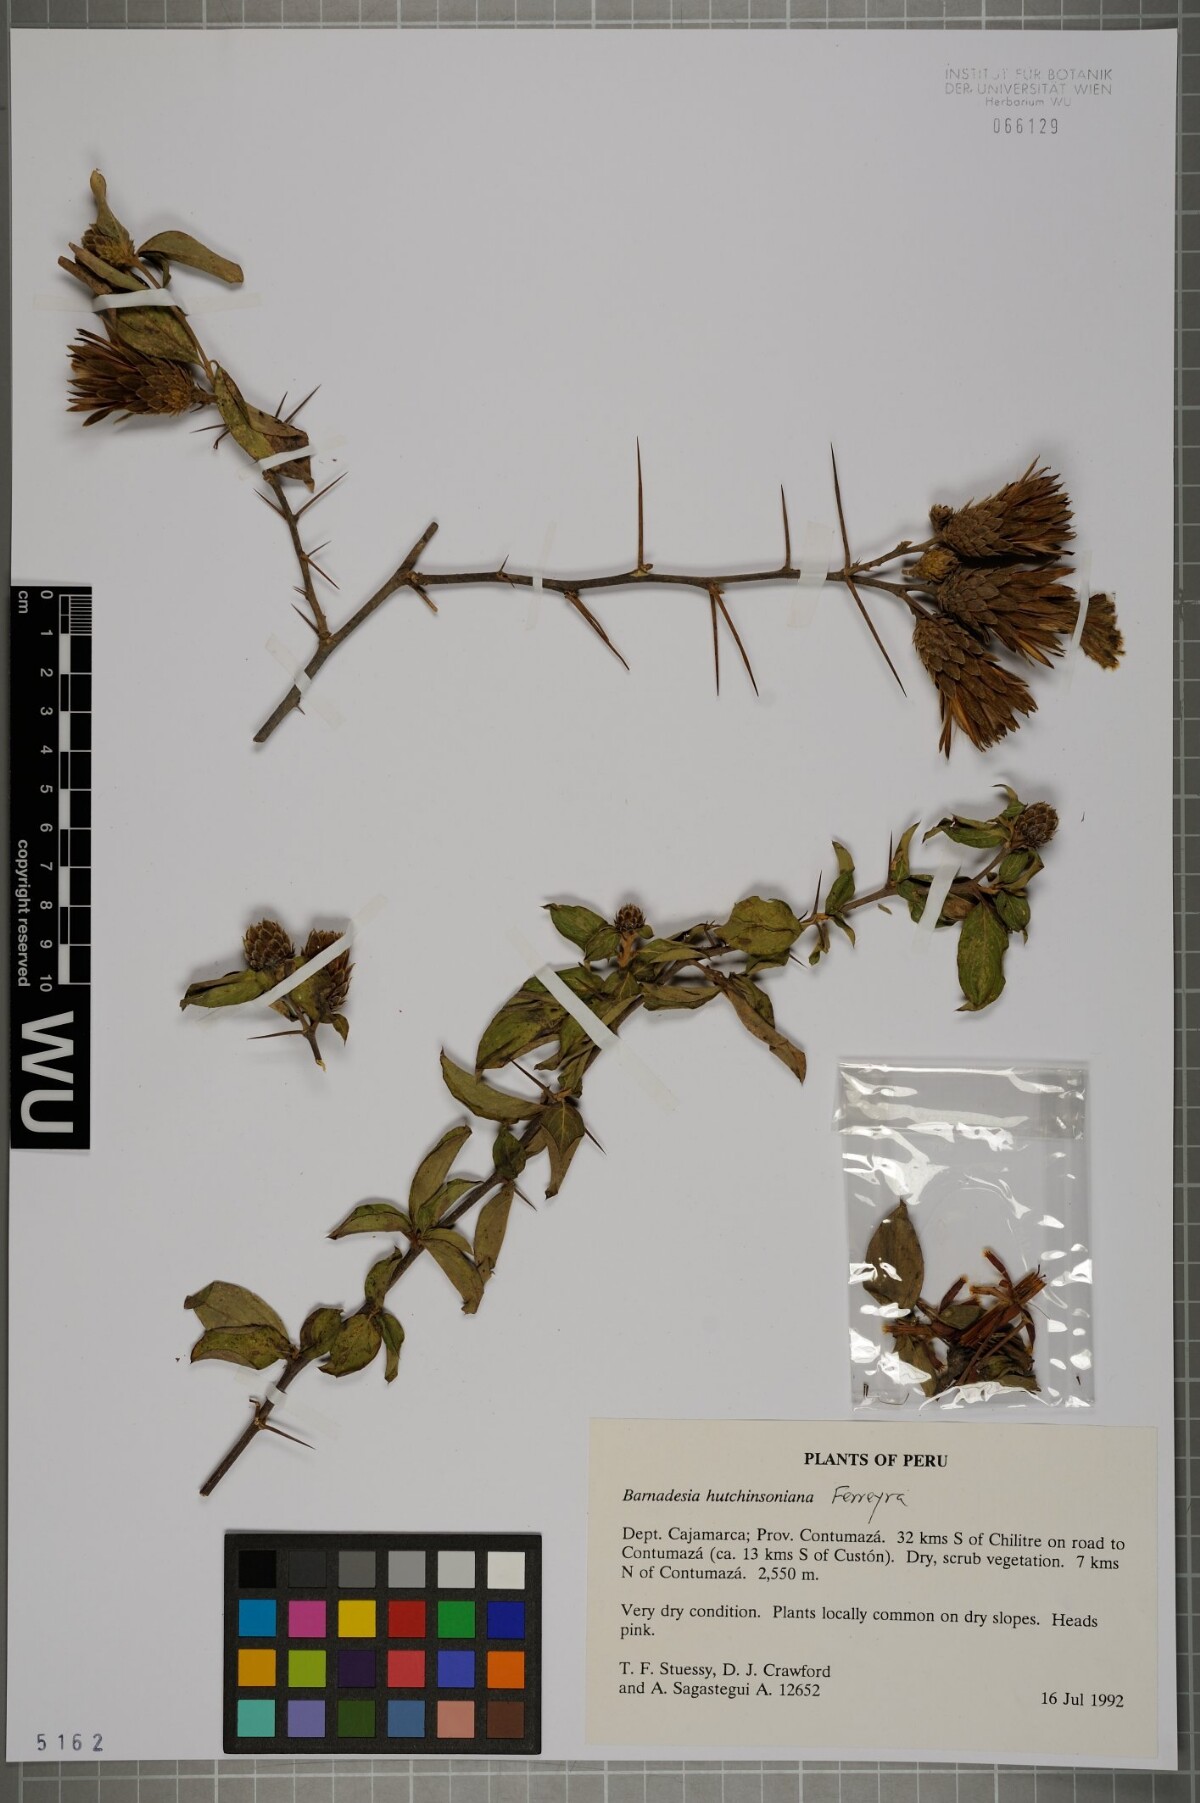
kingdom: Plantae
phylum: Tracheophyta
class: Magnoliopsida
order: Asterales
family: Asteraceae
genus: Barnadesia
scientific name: Barnadesia lehmannii
